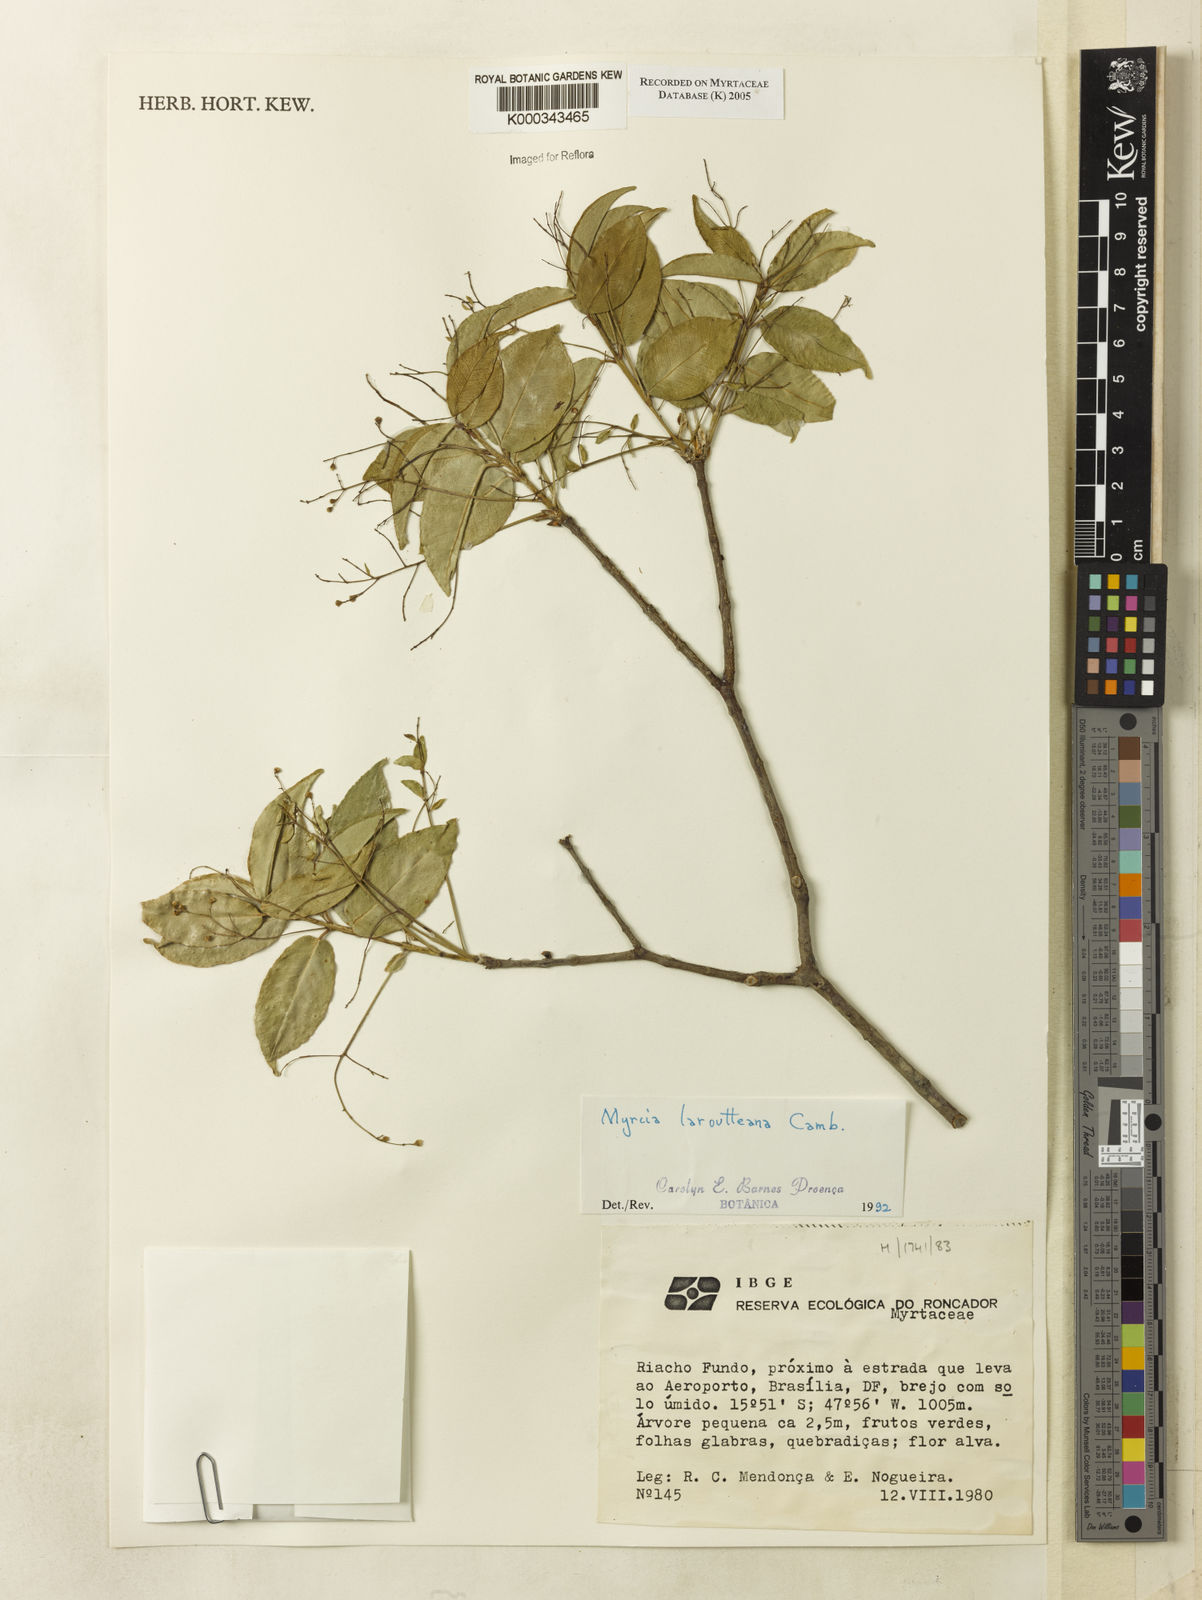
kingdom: Plantae
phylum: Tracheophyta
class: Magnoliopsida
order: Myrtales
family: Myrtaceae
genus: Myrcia
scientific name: Myrcia laruotteana
